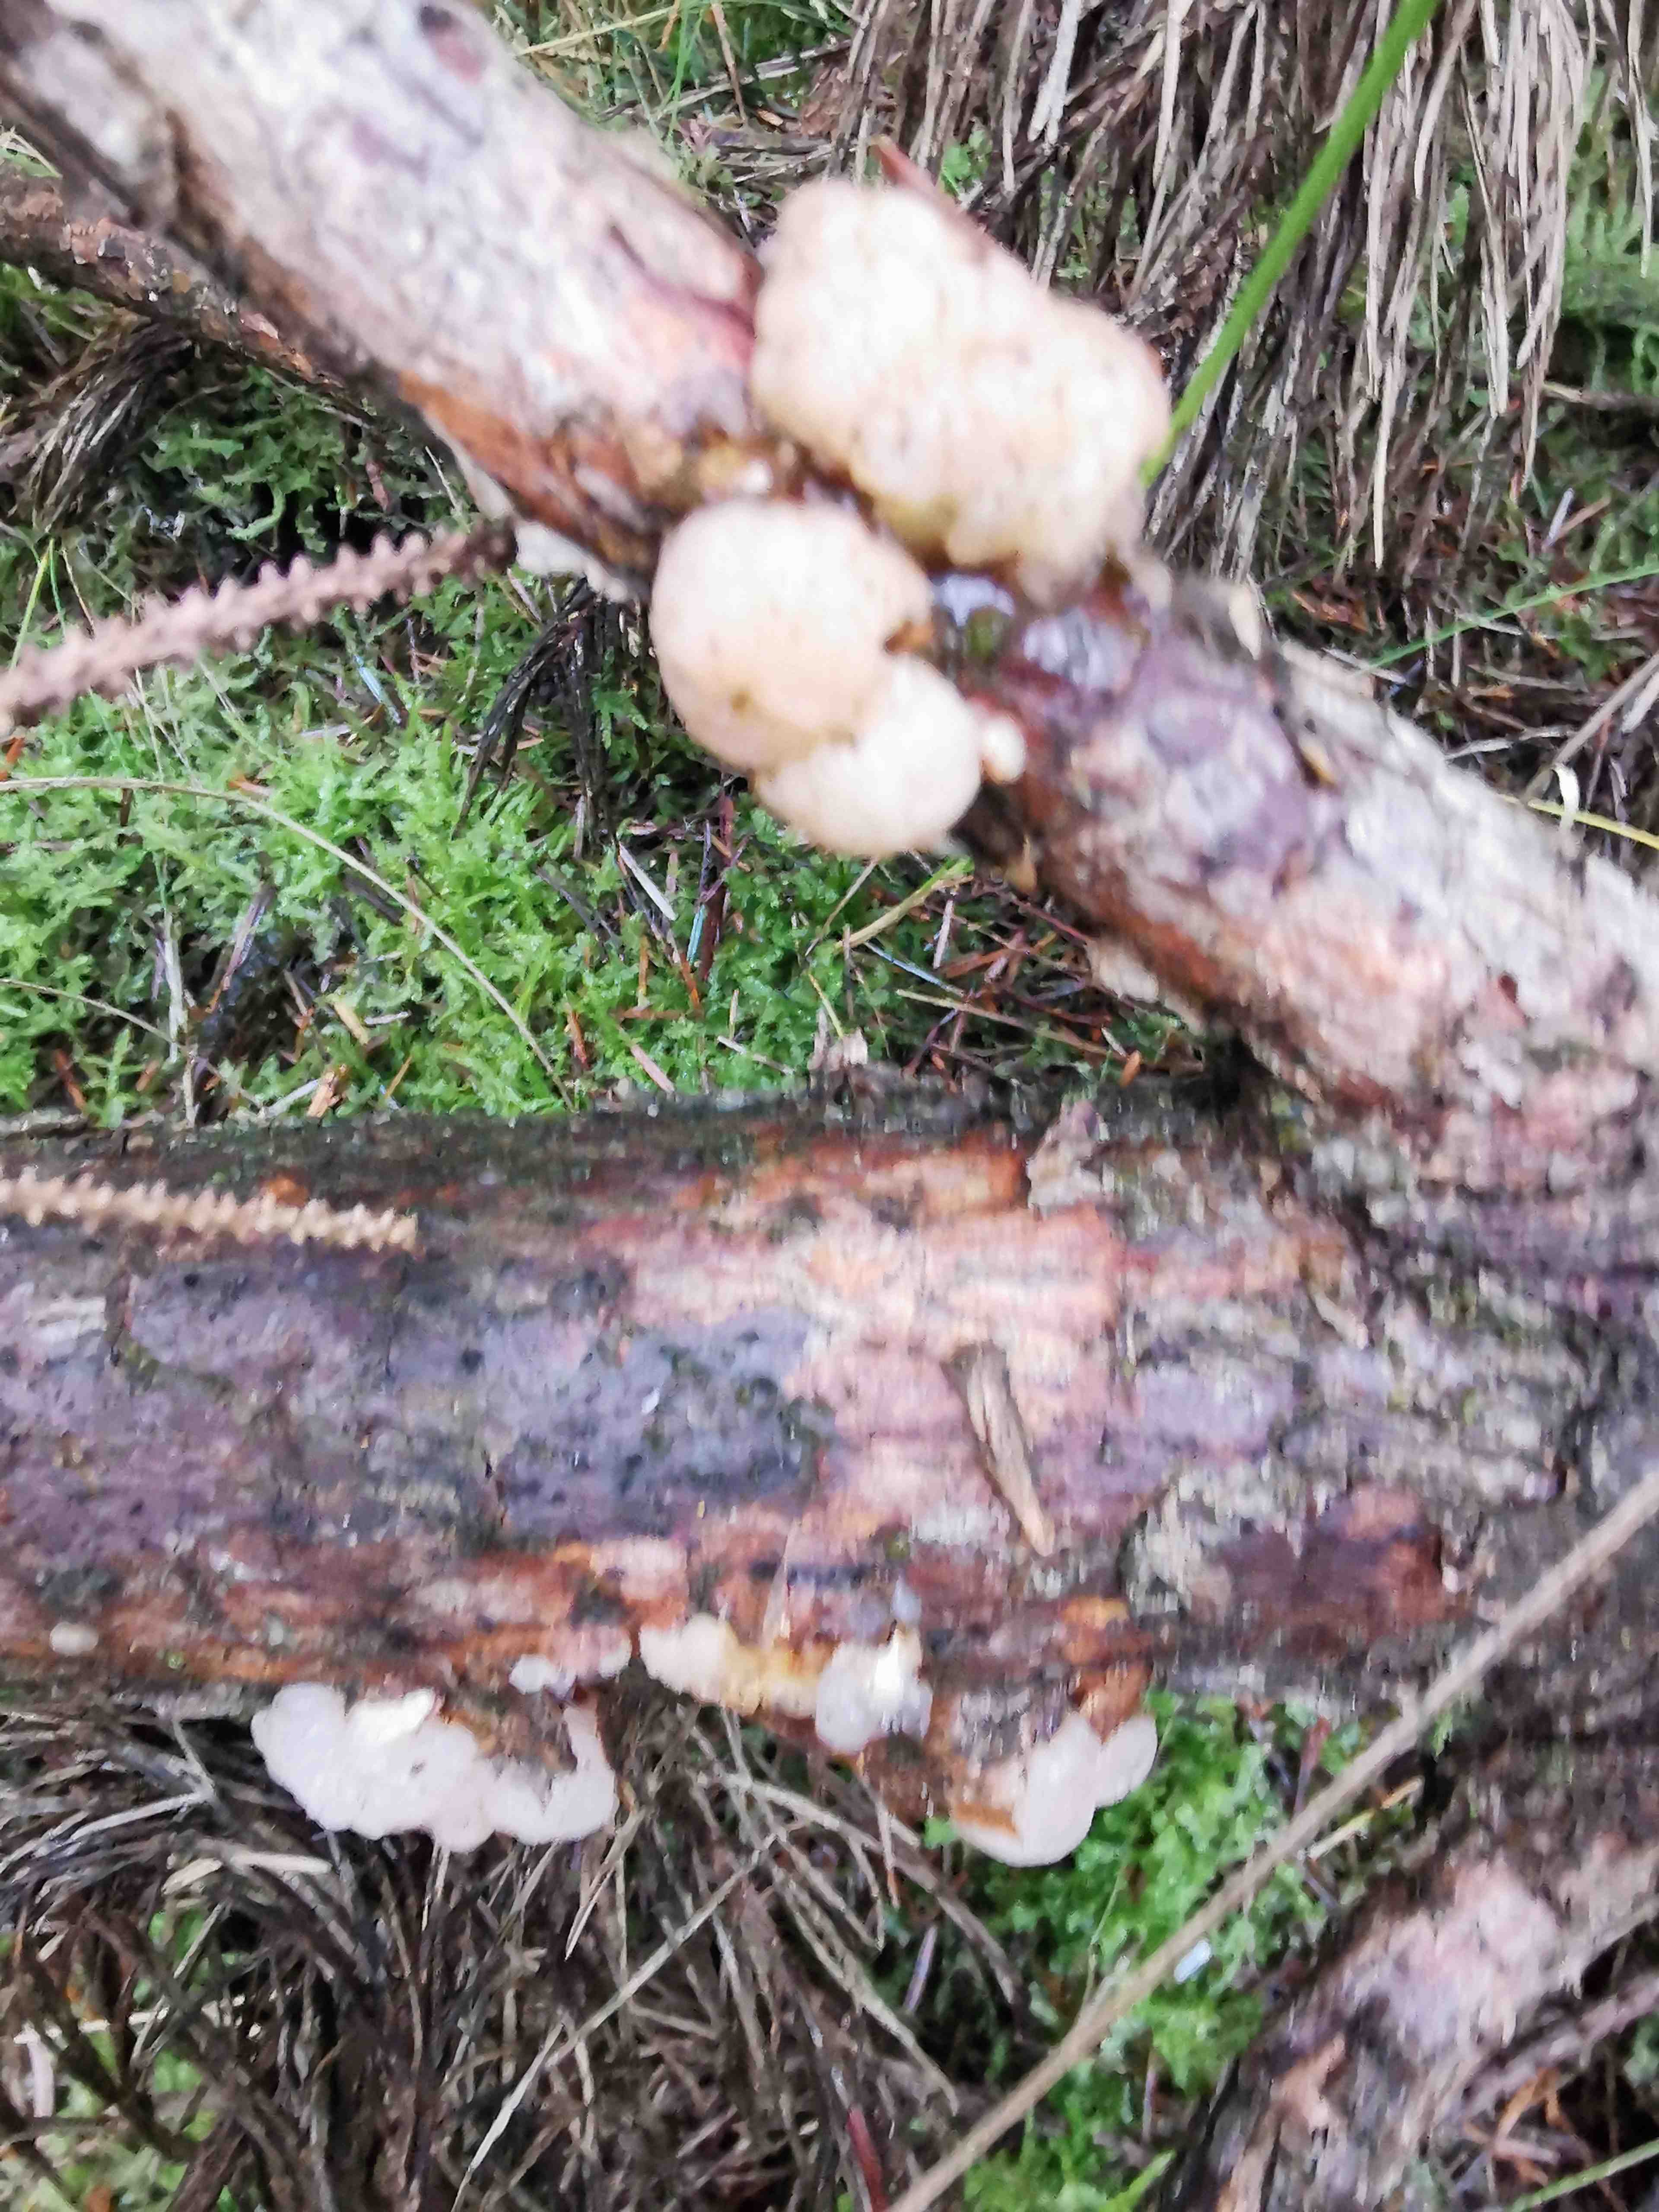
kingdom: Fungi
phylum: Basidiomycota
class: Tremellomycetes
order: Tremellales
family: Naemateliaceae
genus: Naematelia
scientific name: Naematelia encephala
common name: fyrre-bævresvamp
